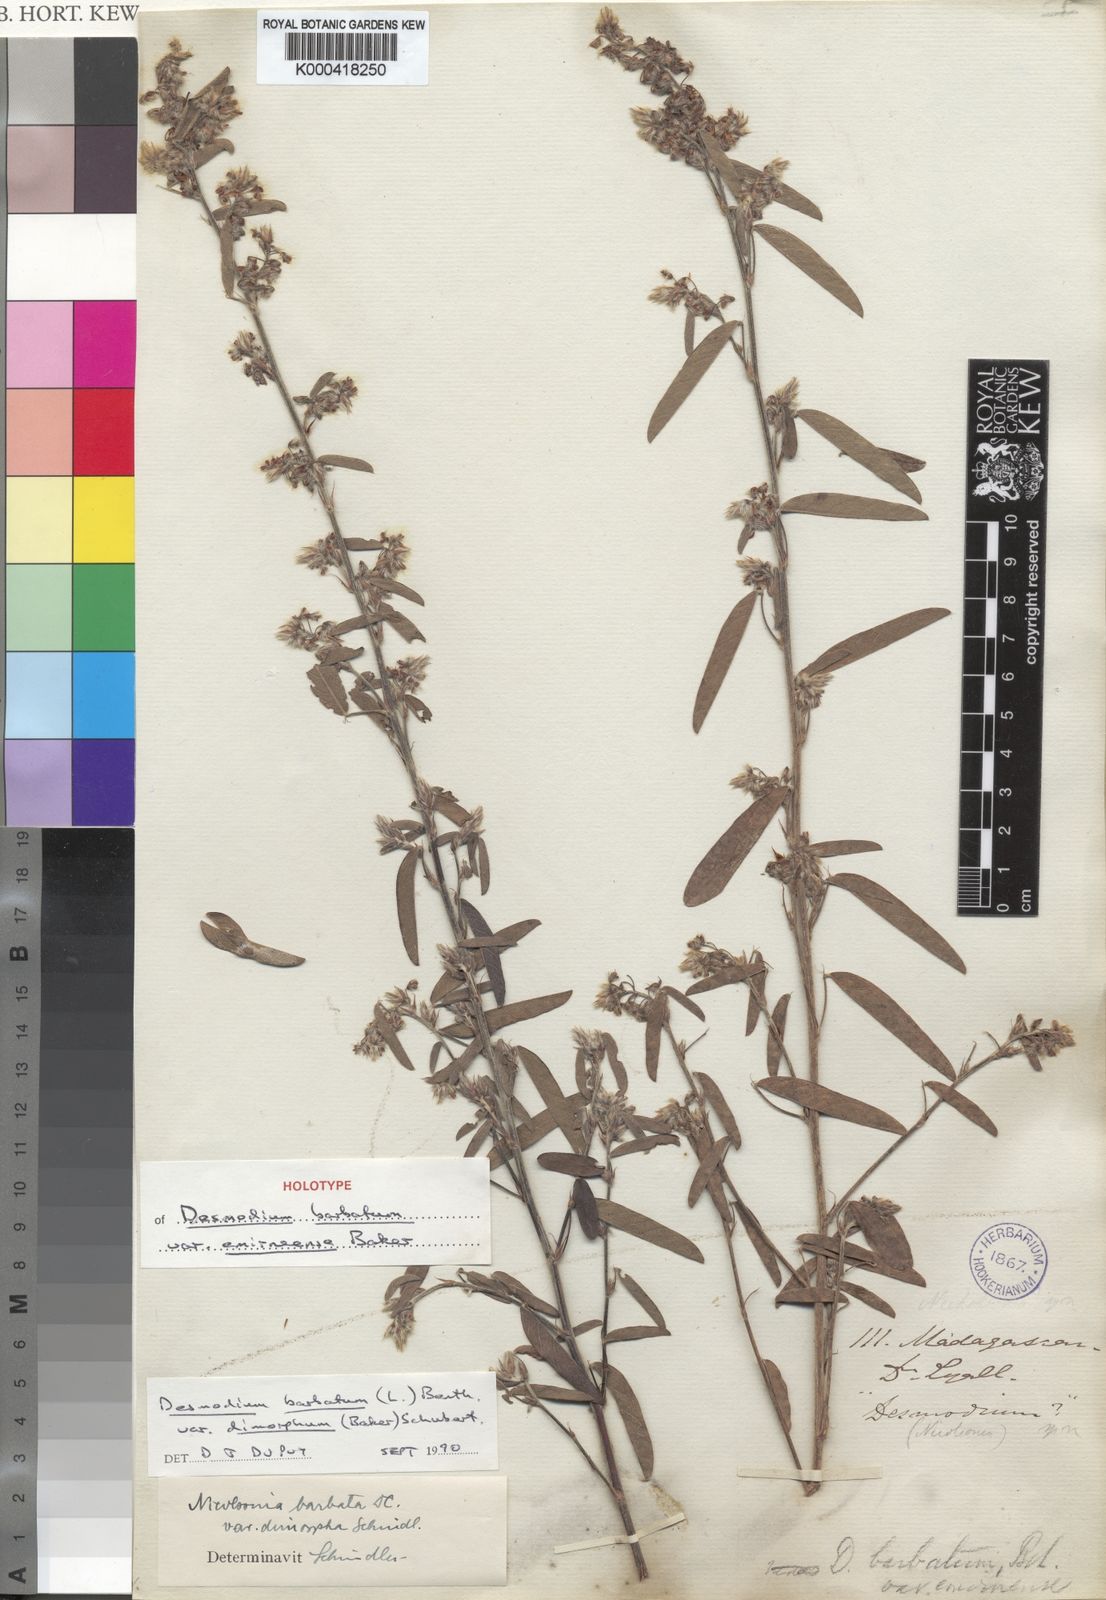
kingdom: Plantae
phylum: Tracheophyta
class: Magnoliopsida
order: Fabales
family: Fabaceae
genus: Grona
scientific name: Grona barbata
